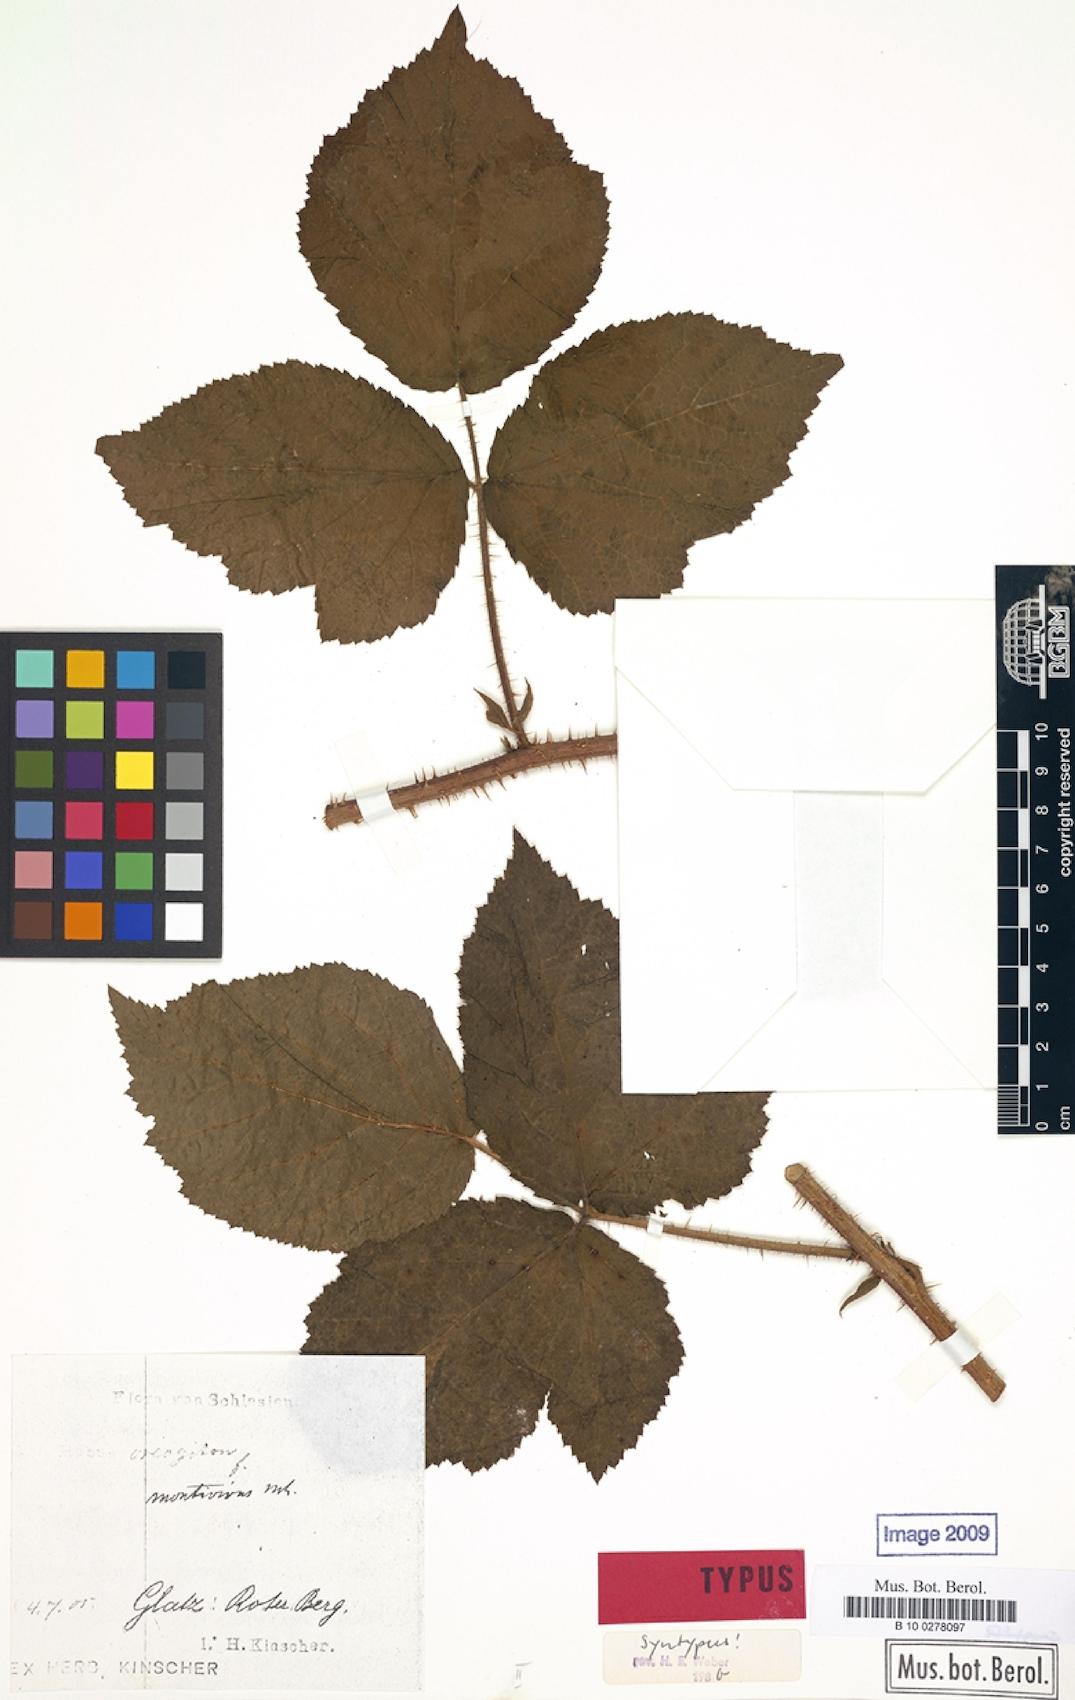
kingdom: Plantae
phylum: Tracheophyta
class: Magnoliopsida
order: Rosales
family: Rosaceae
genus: Rubus
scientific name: Rubus dollnensis
